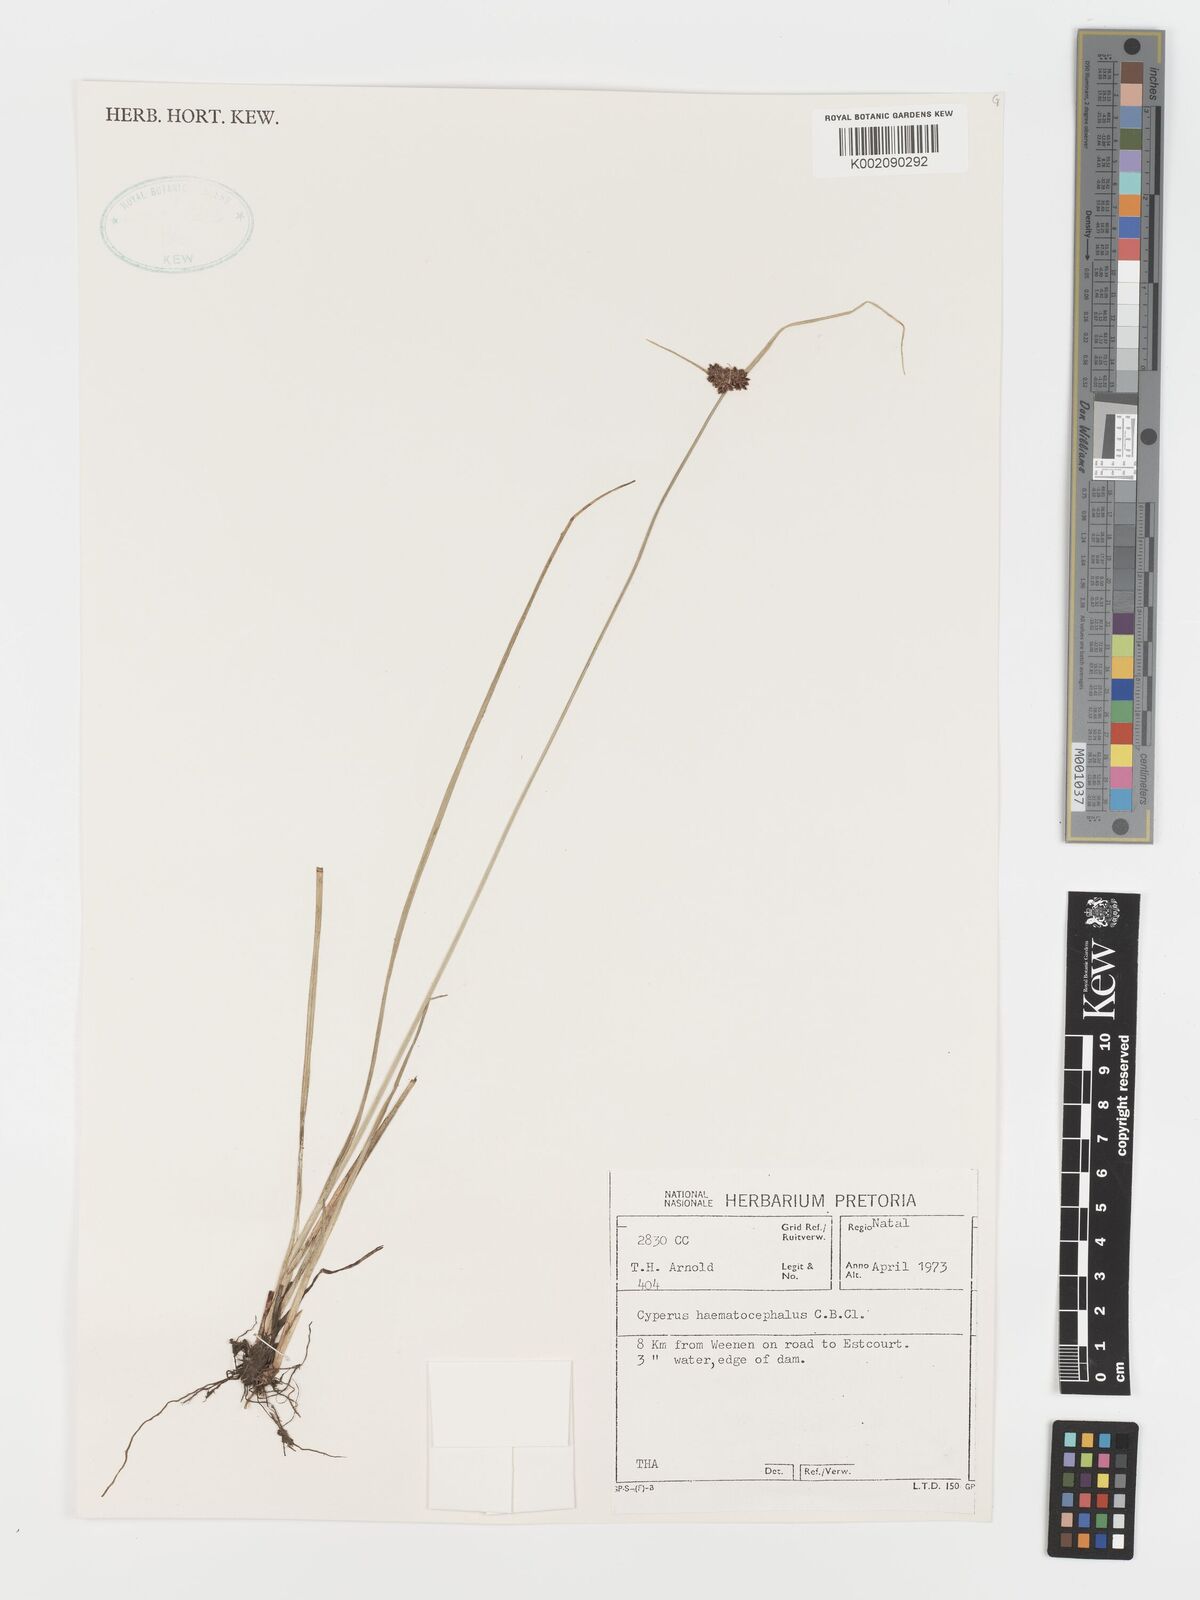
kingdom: Plantae
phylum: Tracheophyta
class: Liliopsida
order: Poales
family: Cyperaceae
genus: Cyperus
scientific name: Cyperus haematocephalus
